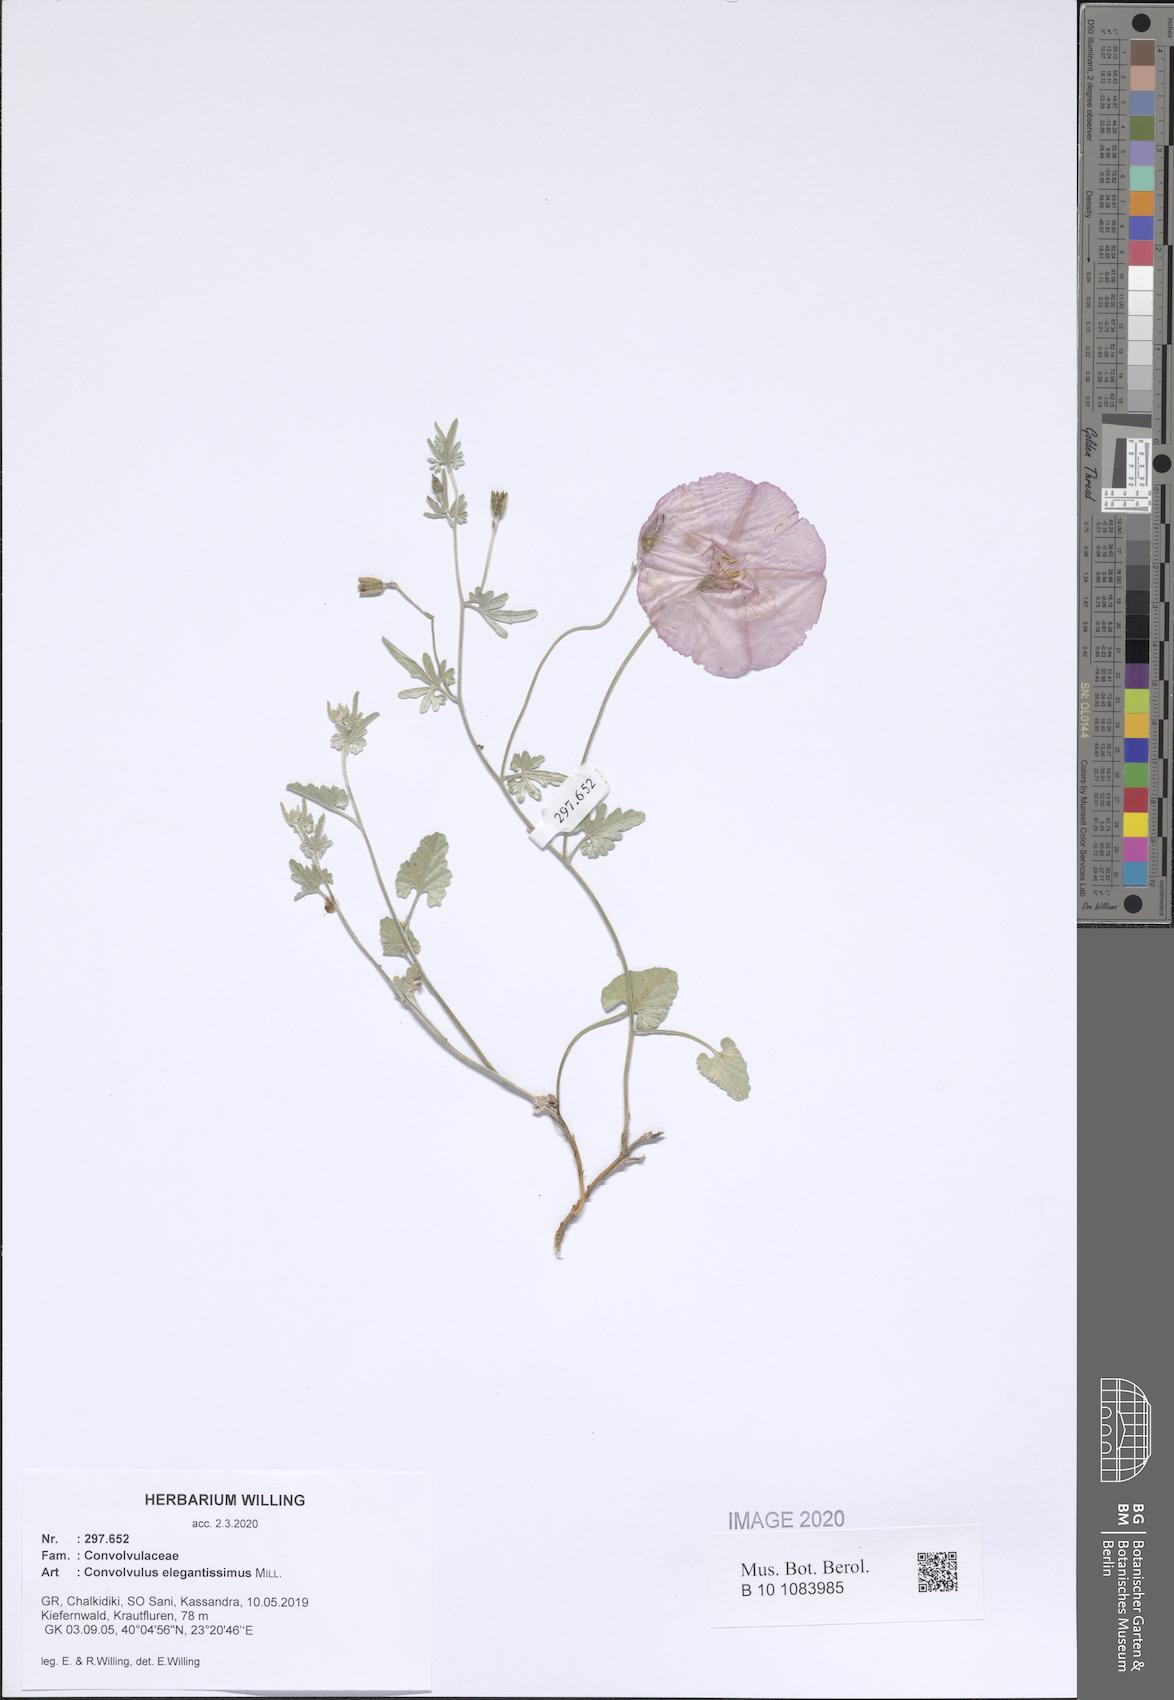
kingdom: Plantae
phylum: Tracheophyta
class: Magnoliopsida
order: Solanales
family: Convolvulaceae
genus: Convolvulus
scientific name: Convolvulus elegantissimus
